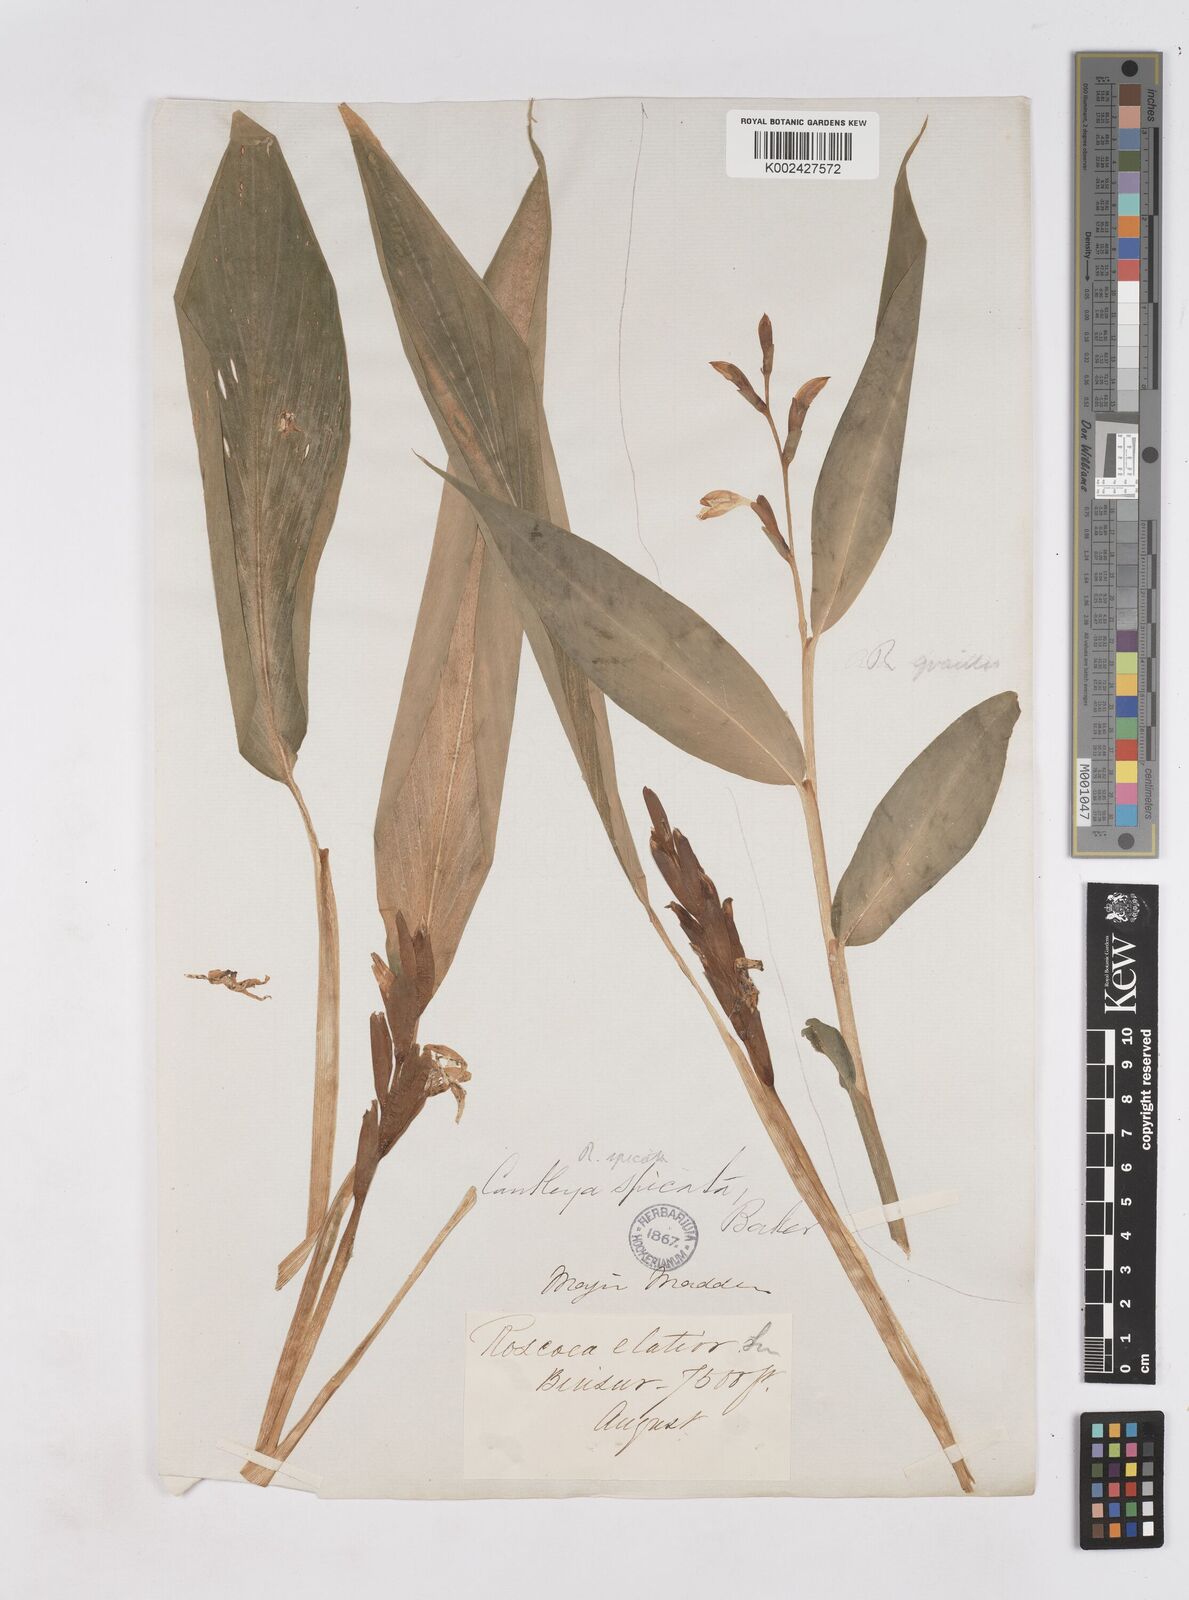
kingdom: Plantae
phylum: Tracheophyta
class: Liliopsida
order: Zingiberales
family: Zingiberaceae
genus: Cautleya
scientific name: Cautleya spicata
